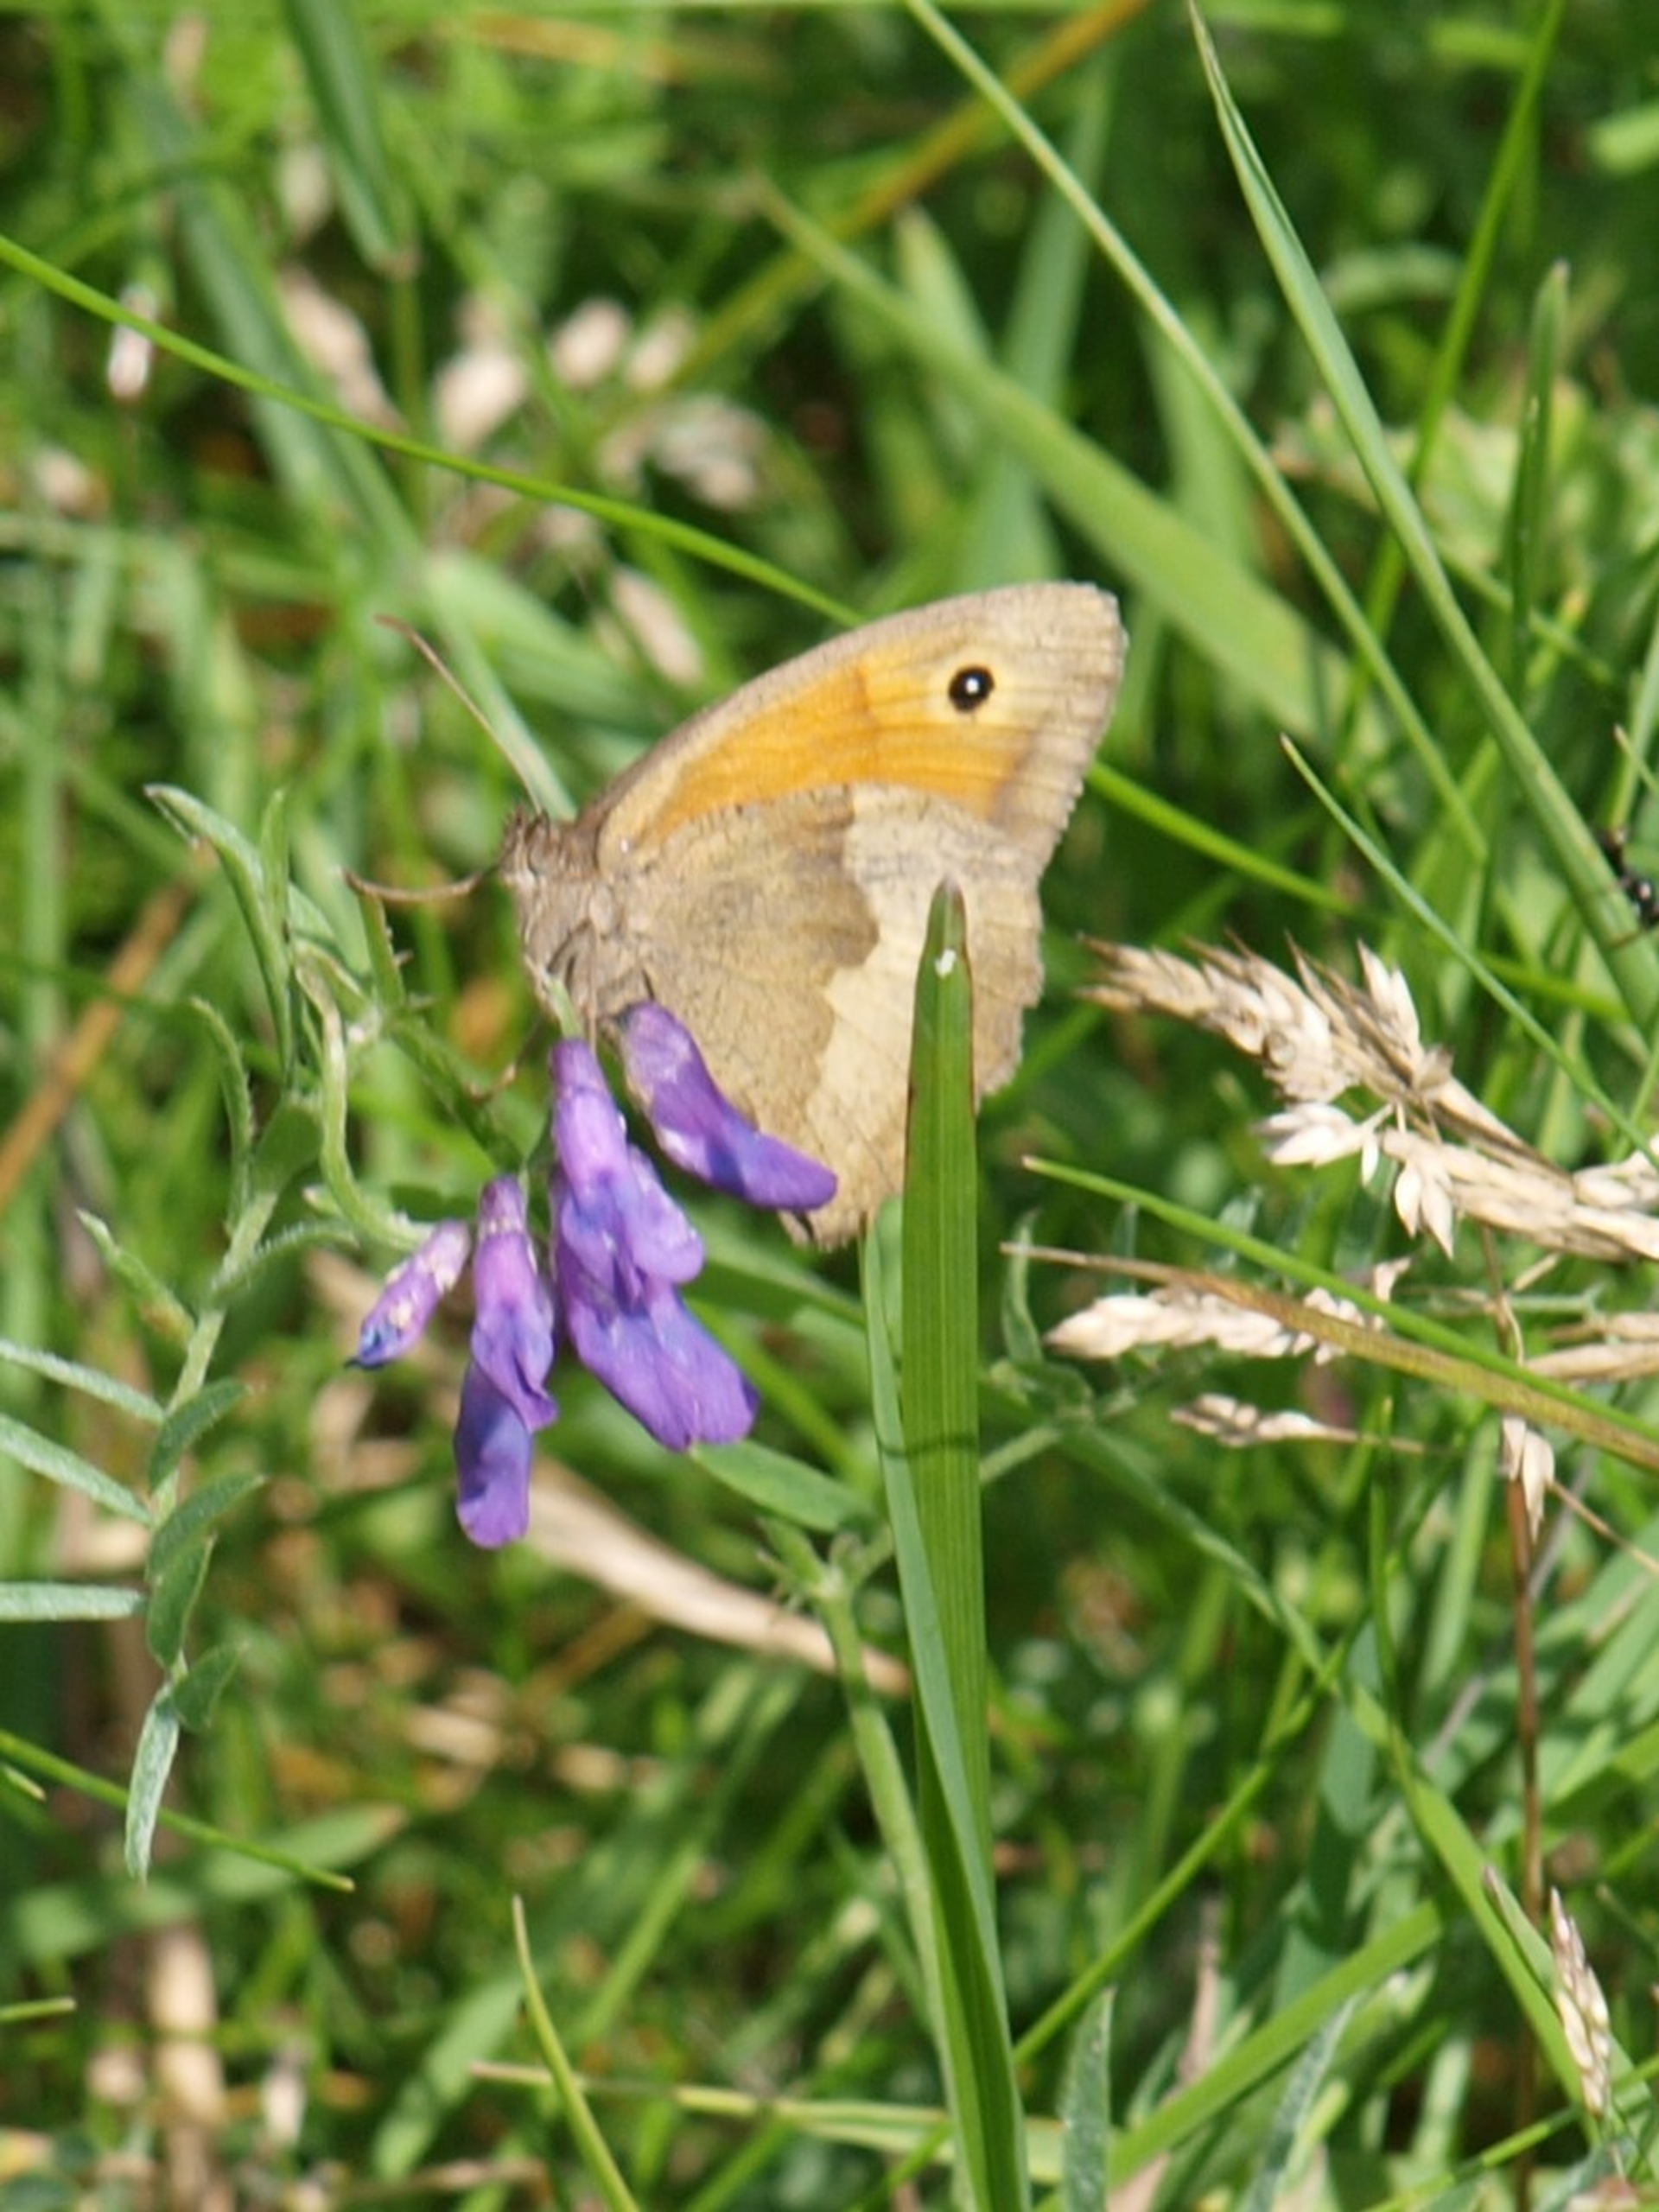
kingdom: Animalia
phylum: Arthropoda
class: Insecta
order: Lepidoptera
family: Nymphalidae
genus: Maniola
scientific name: Maniola jurtina
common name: Græsrandøje
